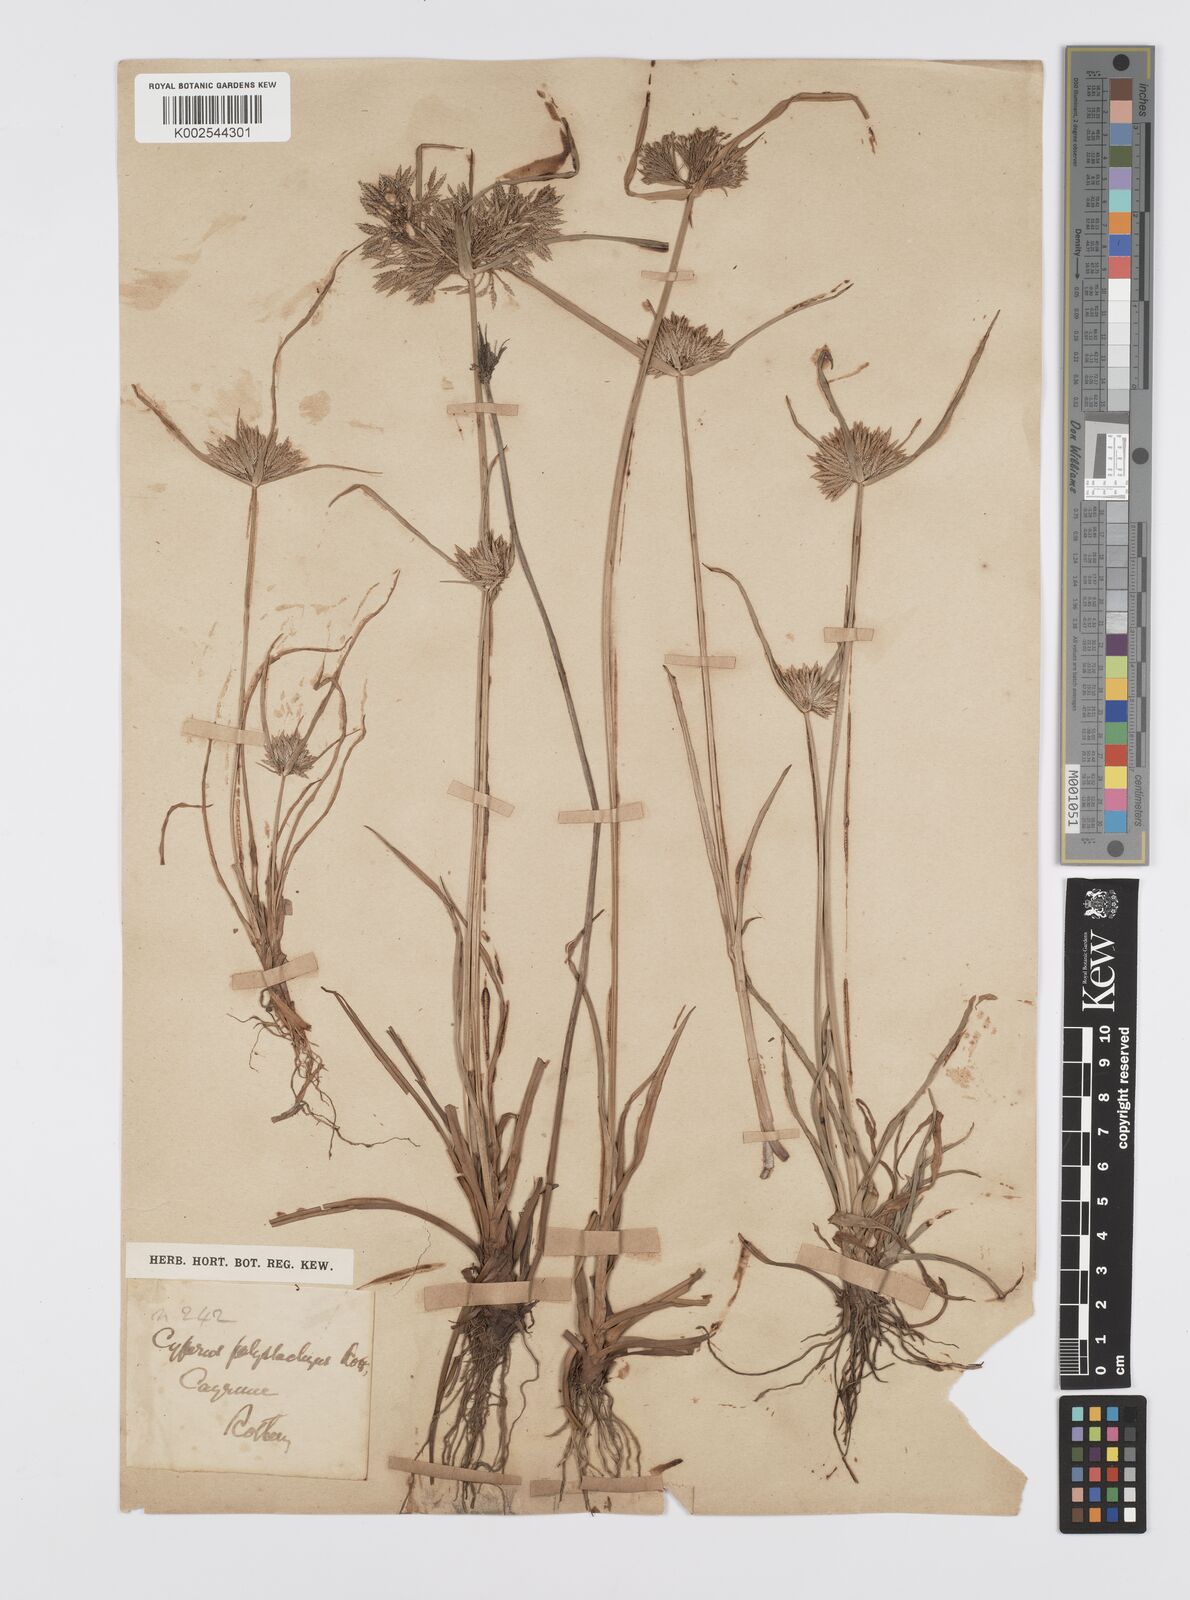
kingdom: Plantae
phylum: Tracheophyta
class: Liliopsida
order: Poales
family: Cyperaceae
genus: Cyperus
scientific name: Cyperus polystachyos
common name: Bunchy flat sedge
